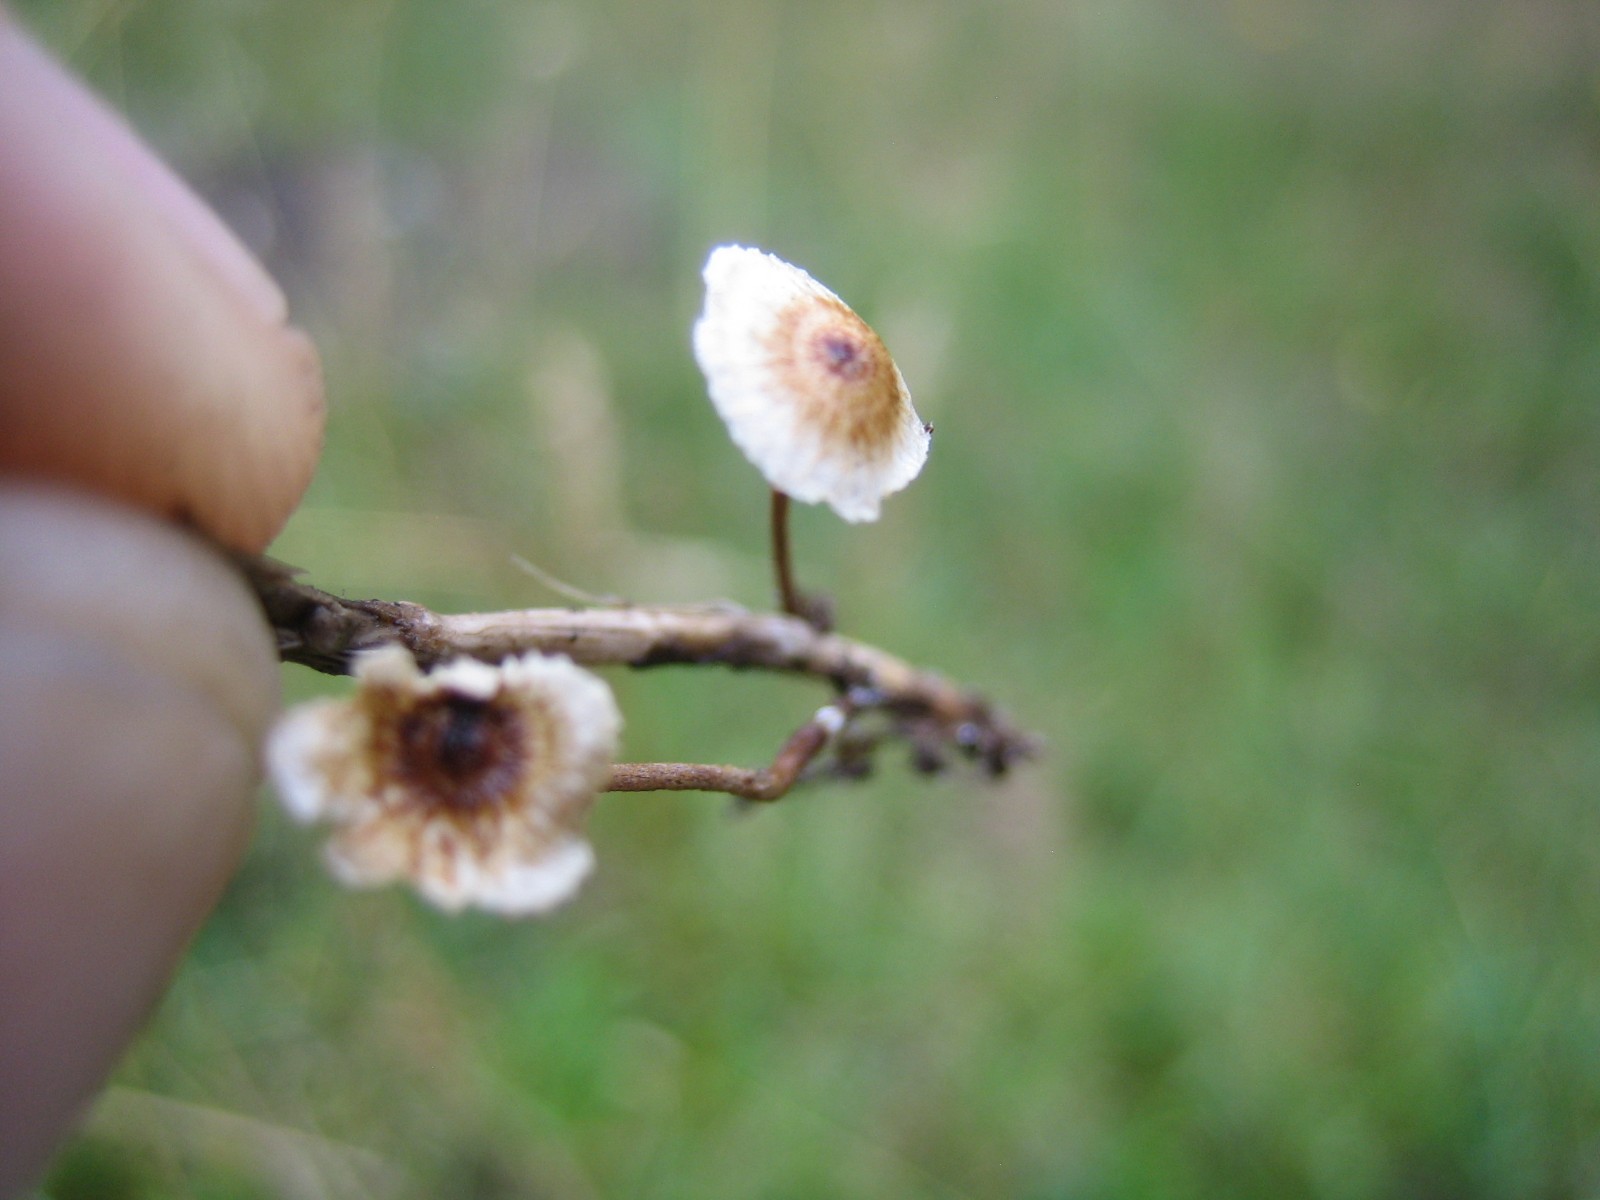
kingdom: Fungi
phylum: Basidiomycota
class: Agaricomycetes
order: Agaricales
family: Marasmiaceae
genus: Crinipellis
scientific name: Crinipellis scabella
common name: børstefod
